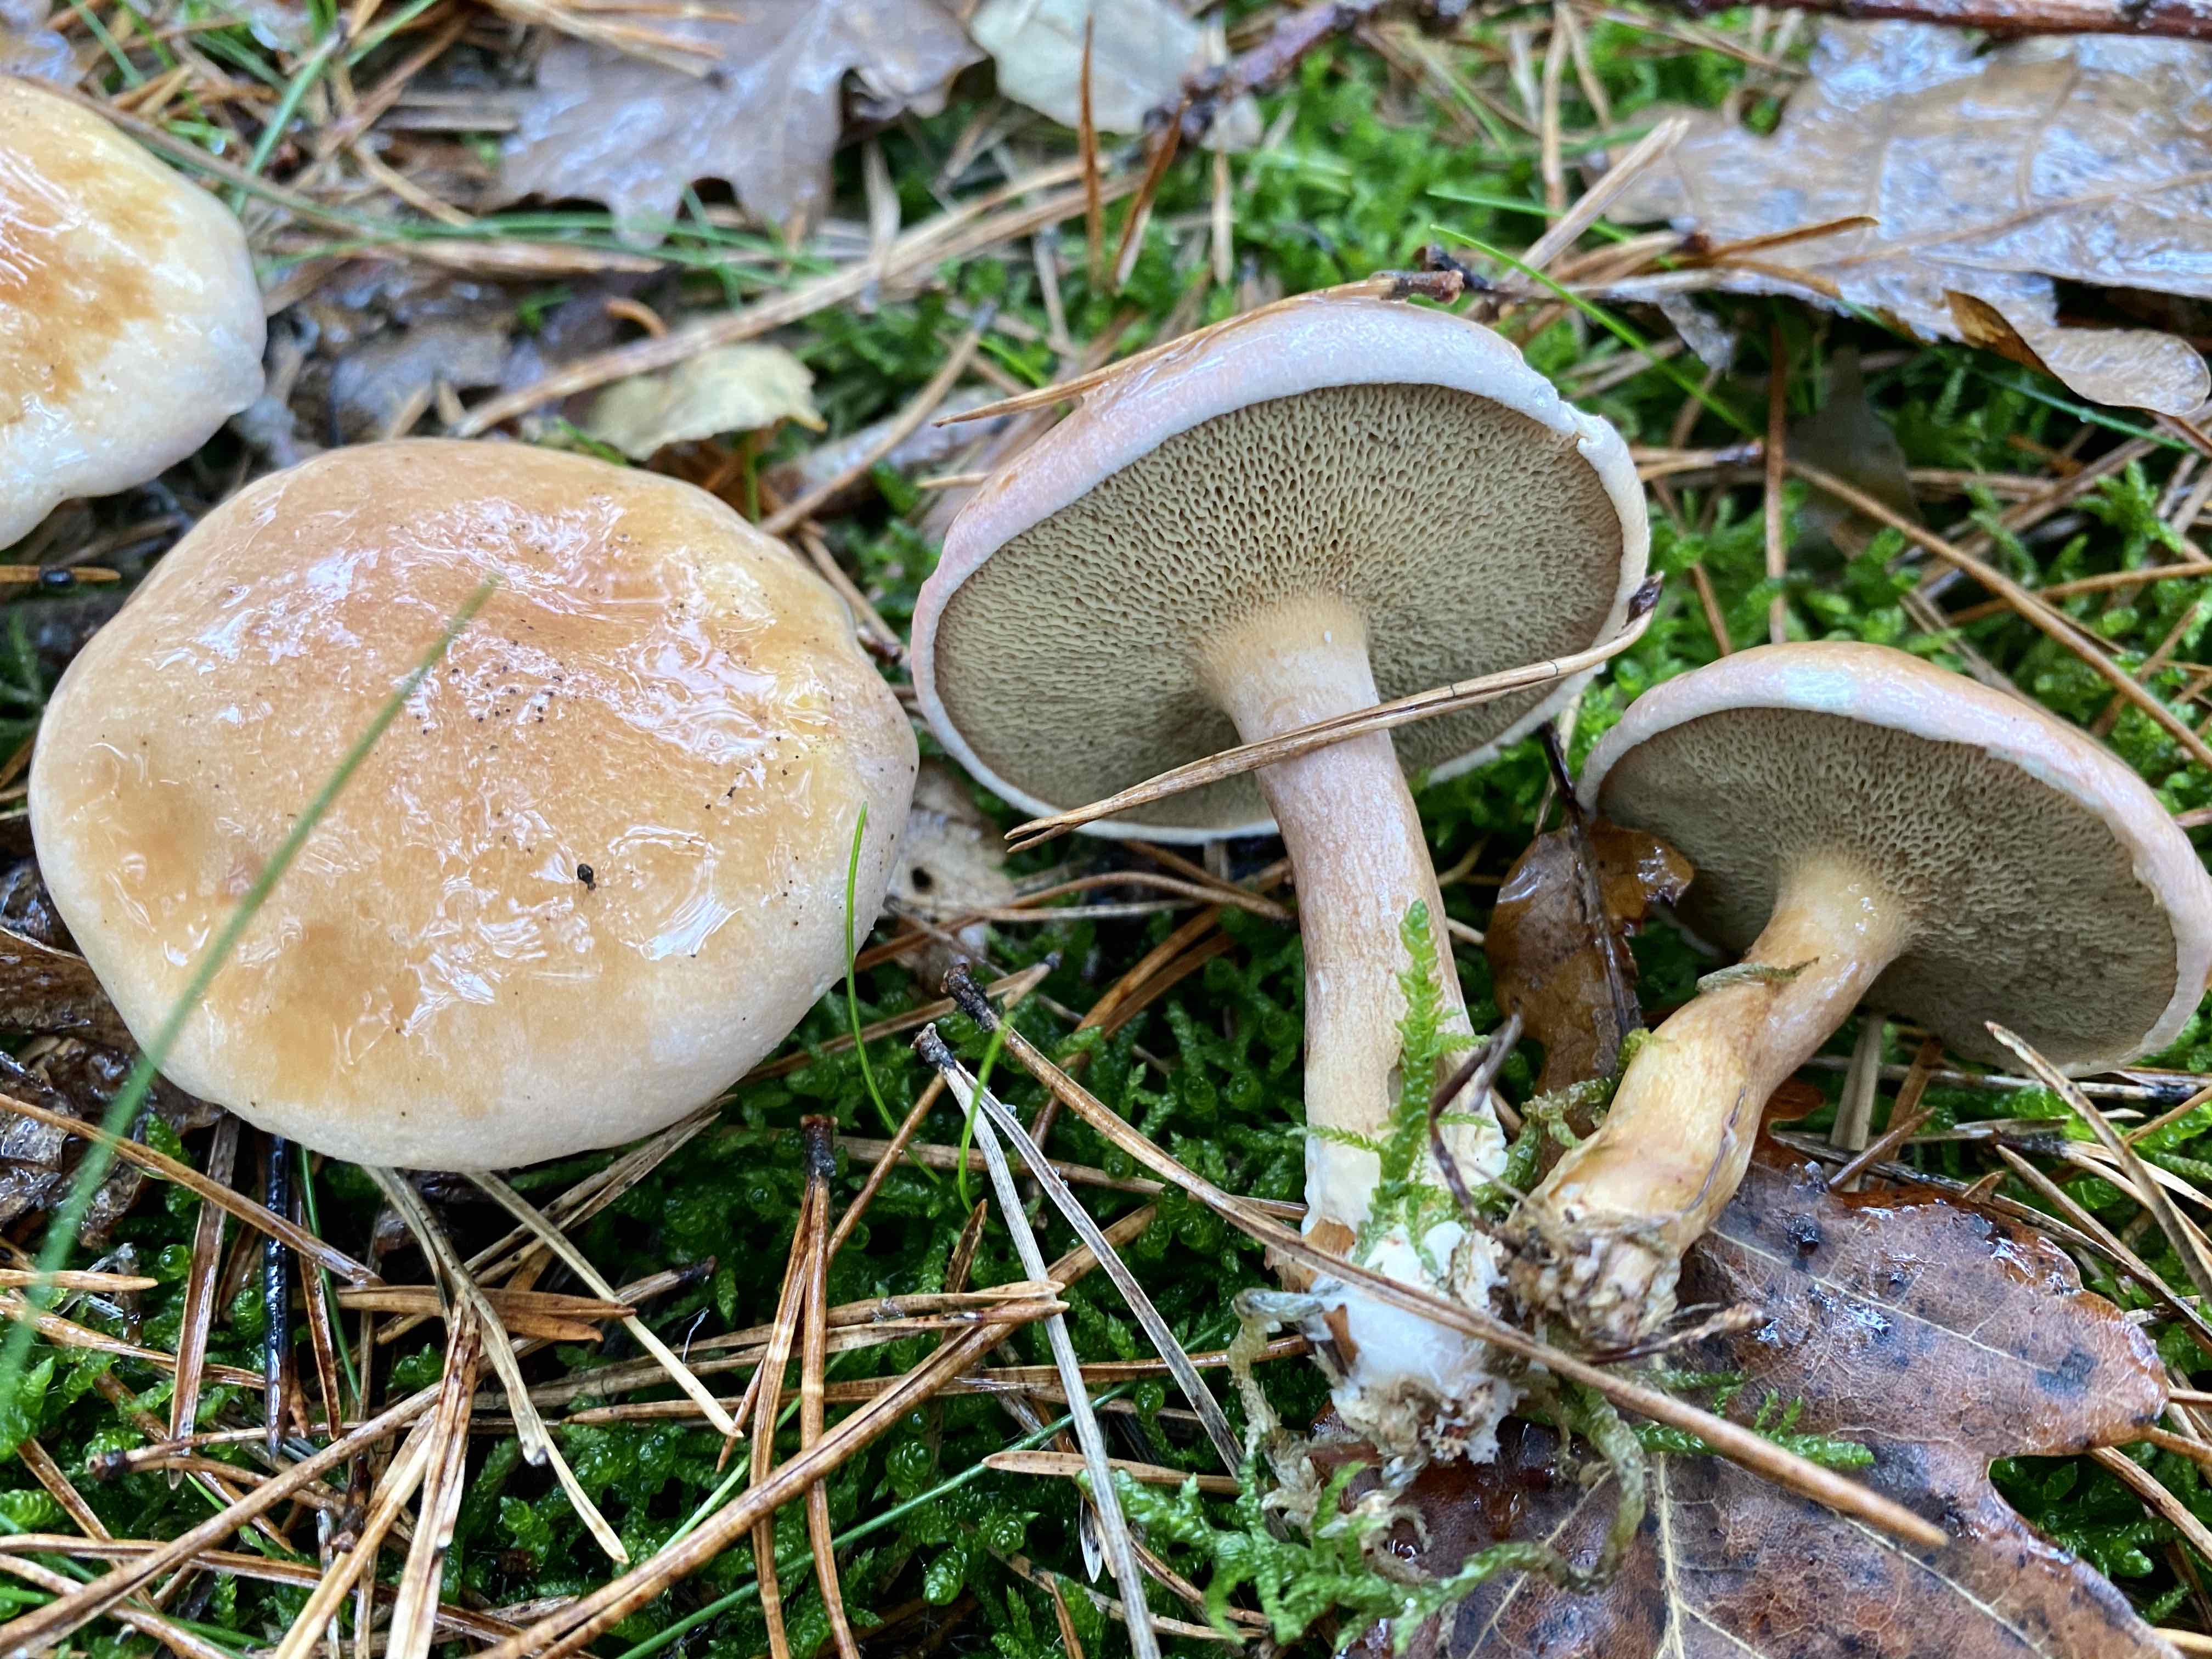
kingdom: Fungi
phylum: Basidiomycota
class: Agaricomycetes
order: Boletales
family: Suillaceae
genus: Suillus
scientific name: Suillus bovinus
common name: grovporet slimrørhat
